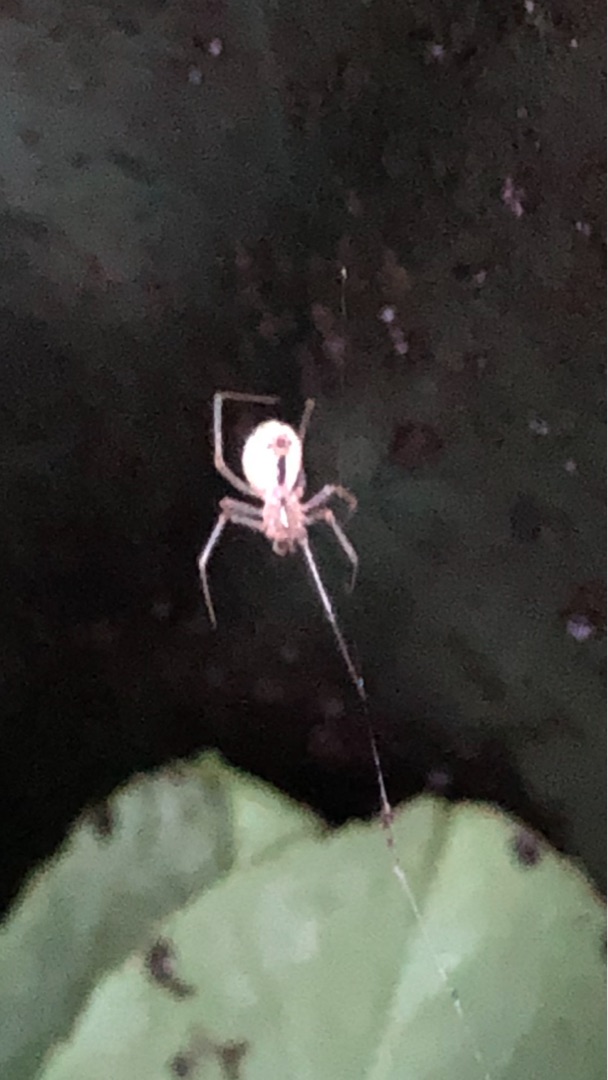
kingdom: Animalia
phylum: Arthropoda
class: Arachnida
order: Araneae
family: Theridiidae
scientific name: Theridiidae
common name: Kugleedderkopper
